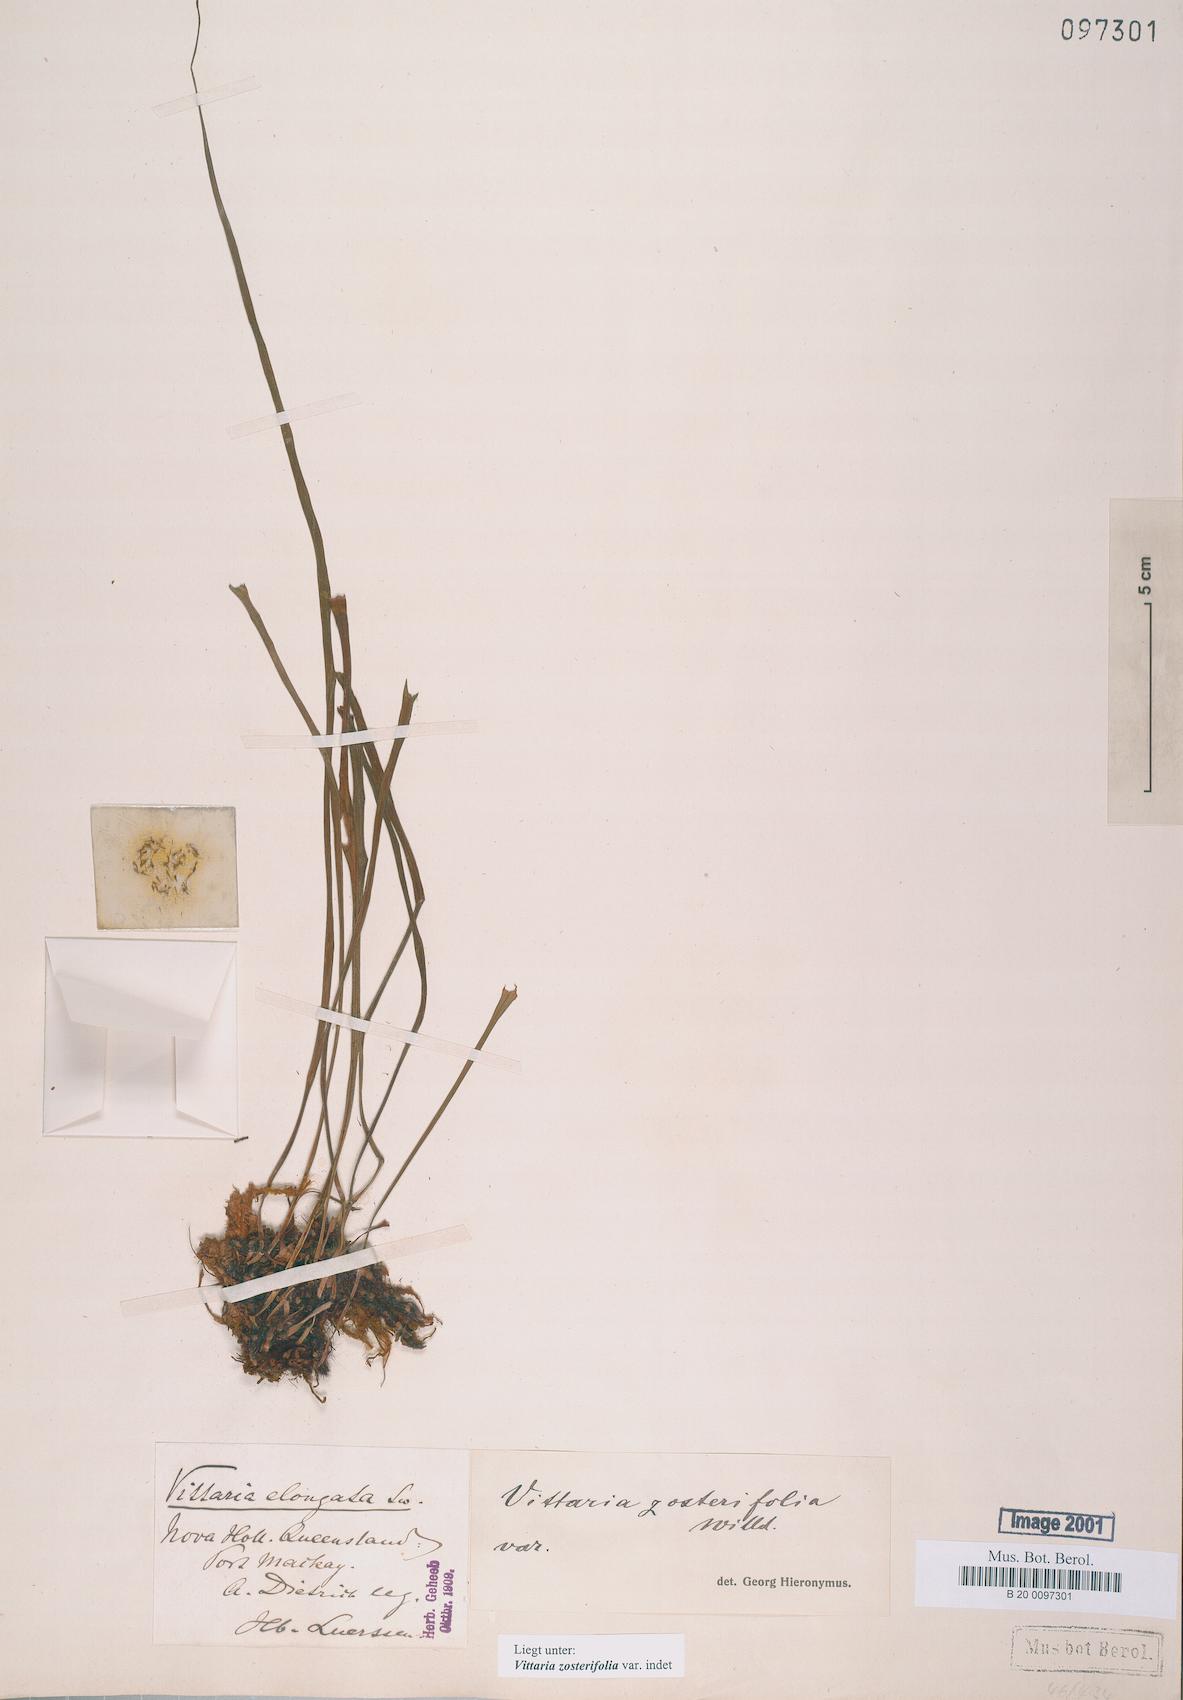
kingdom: Plantae
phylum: Tracheophyta
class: Polypodiopsida
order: Polypodiales
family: Pteridaceae
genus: Haplopteris
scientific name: Haplopteris zosterifolia
